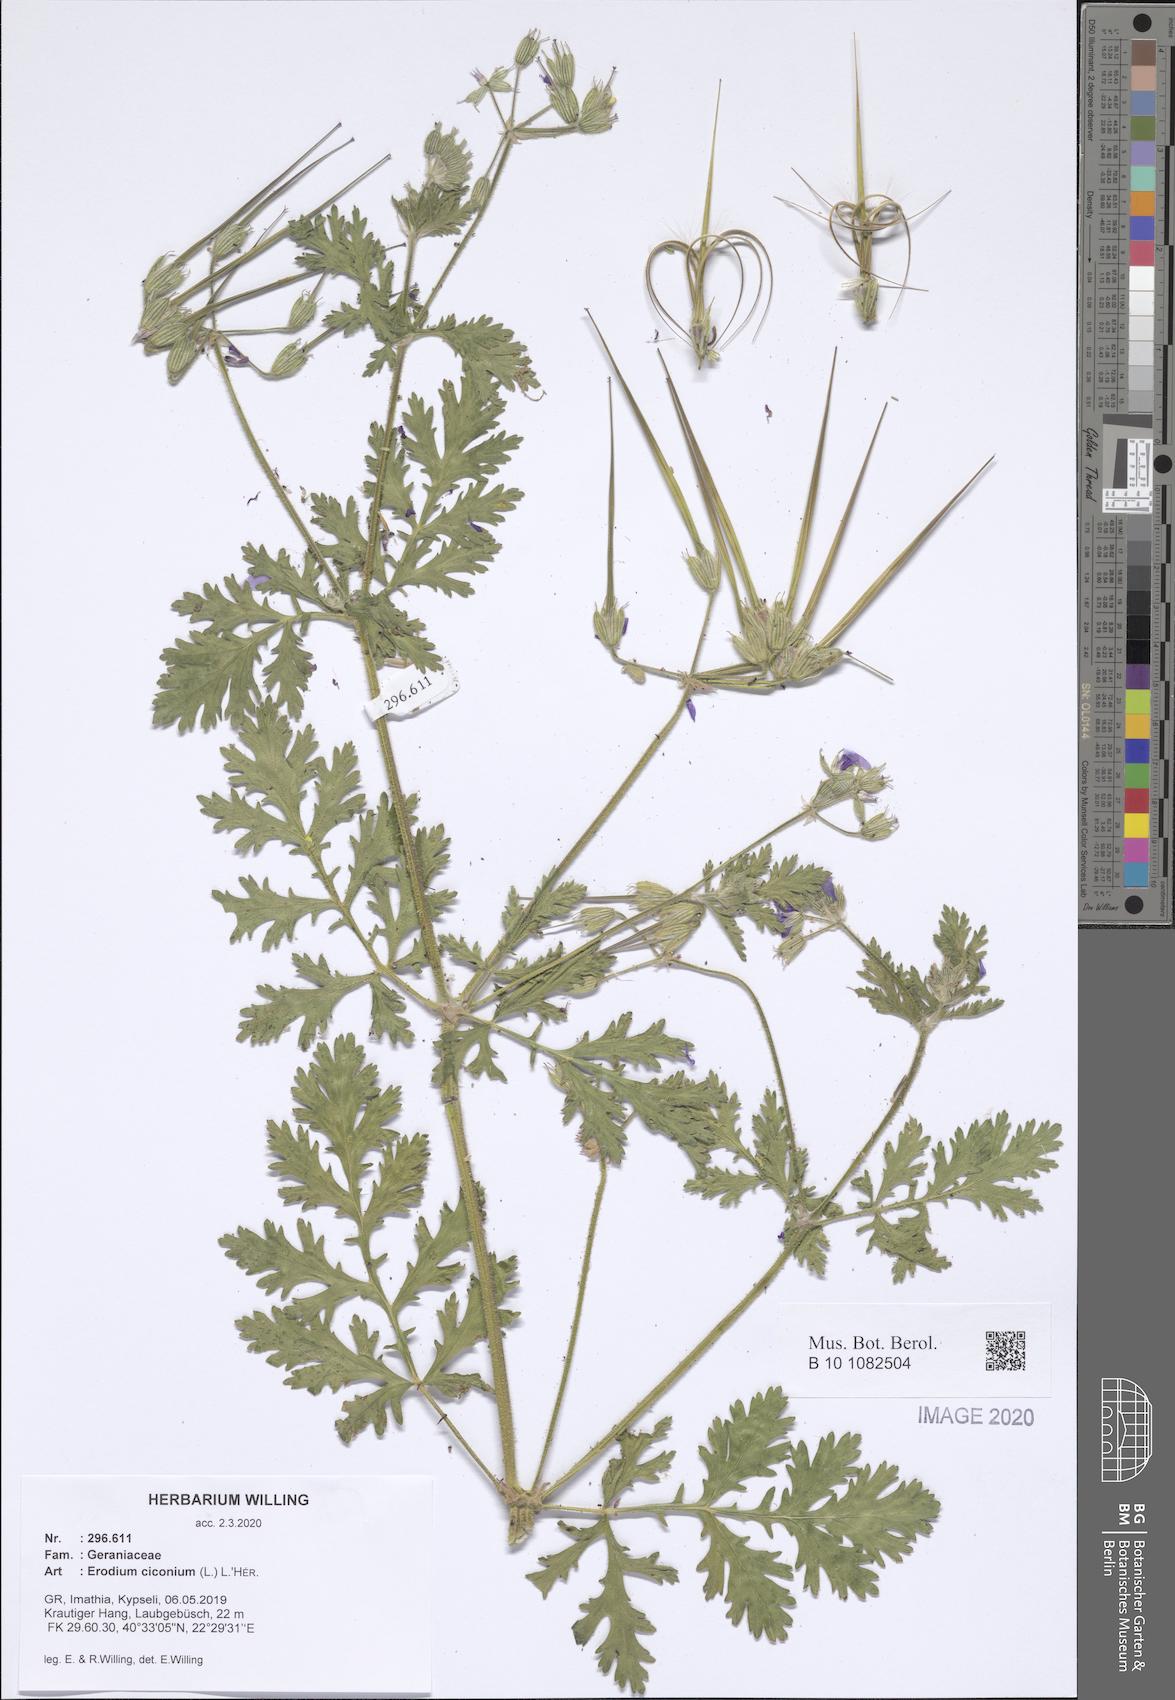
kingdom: Plantae
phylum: Tracheophyta
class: Magnoliopsida
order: Geraniales
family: Geraniaceae
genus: Erodium
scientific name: Erodium ciconium
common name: Common stork's bill
